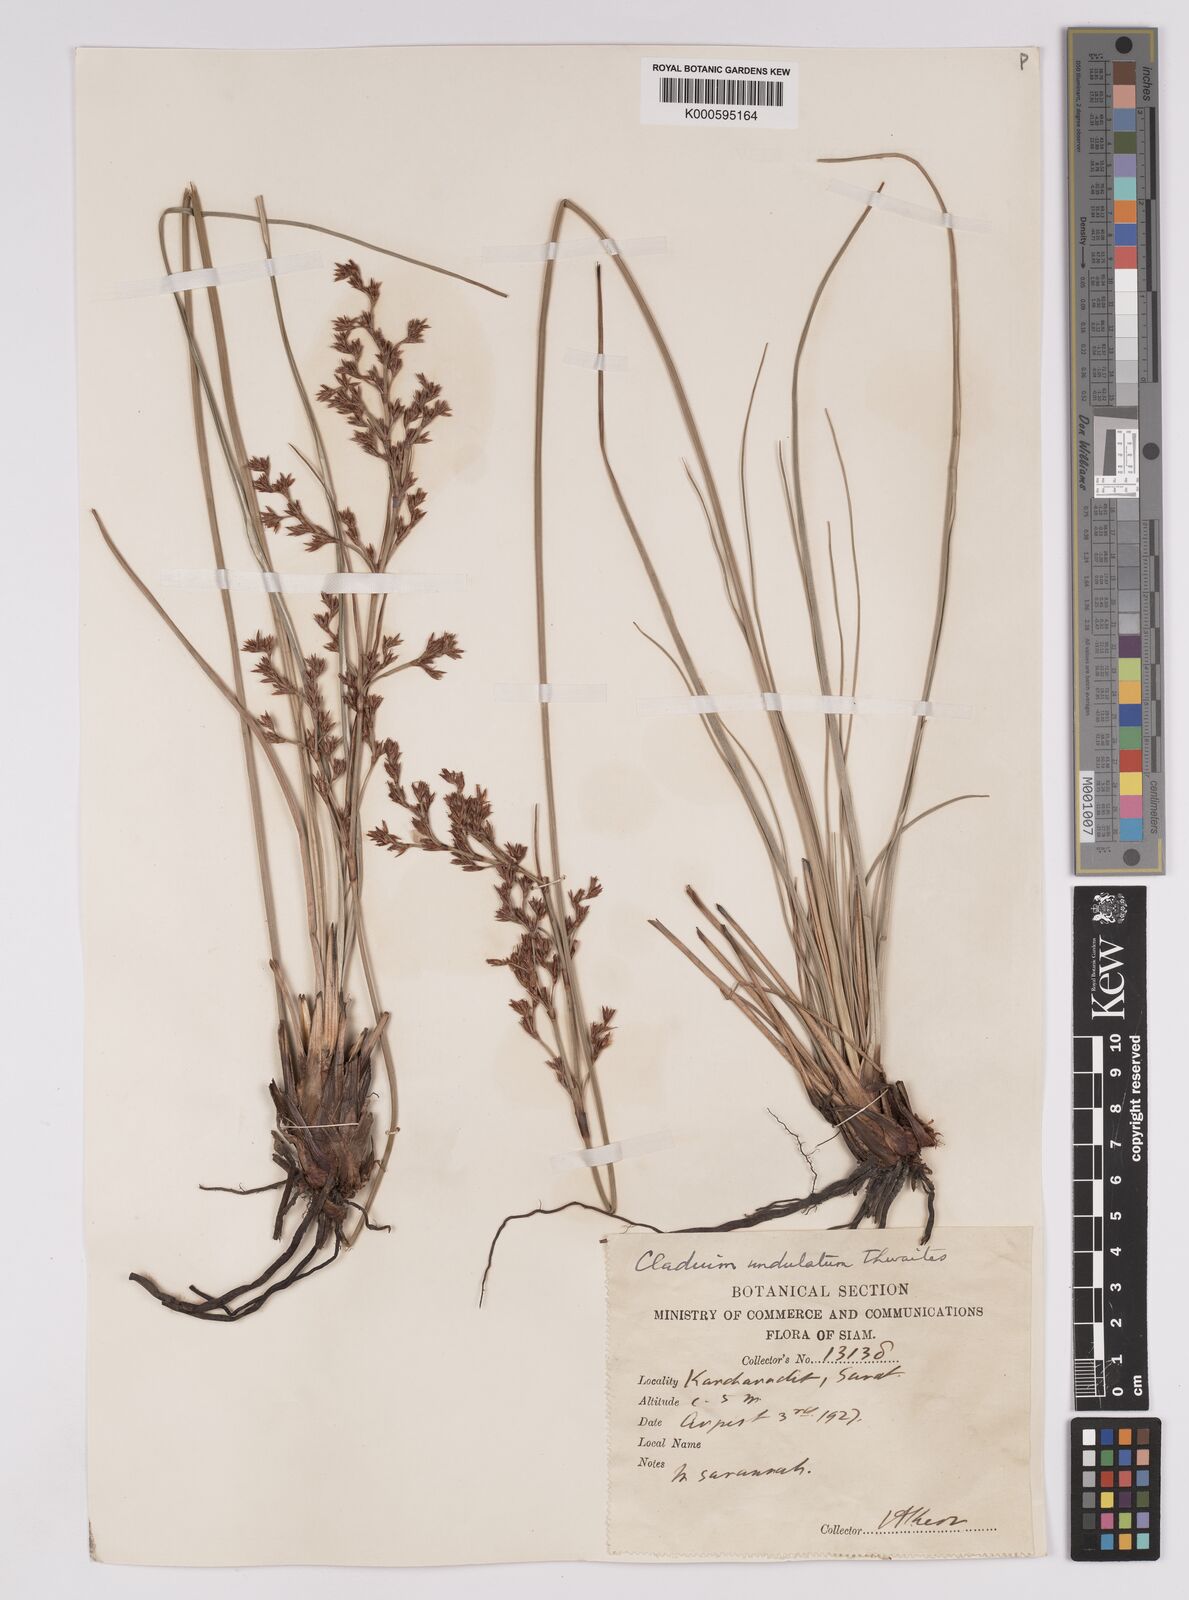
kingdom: Plantae
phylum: Tracheophyta
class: Liliopsida
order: Poales
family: Cyperaceae
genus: Anthelepis
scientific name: Anthelepis undulata
